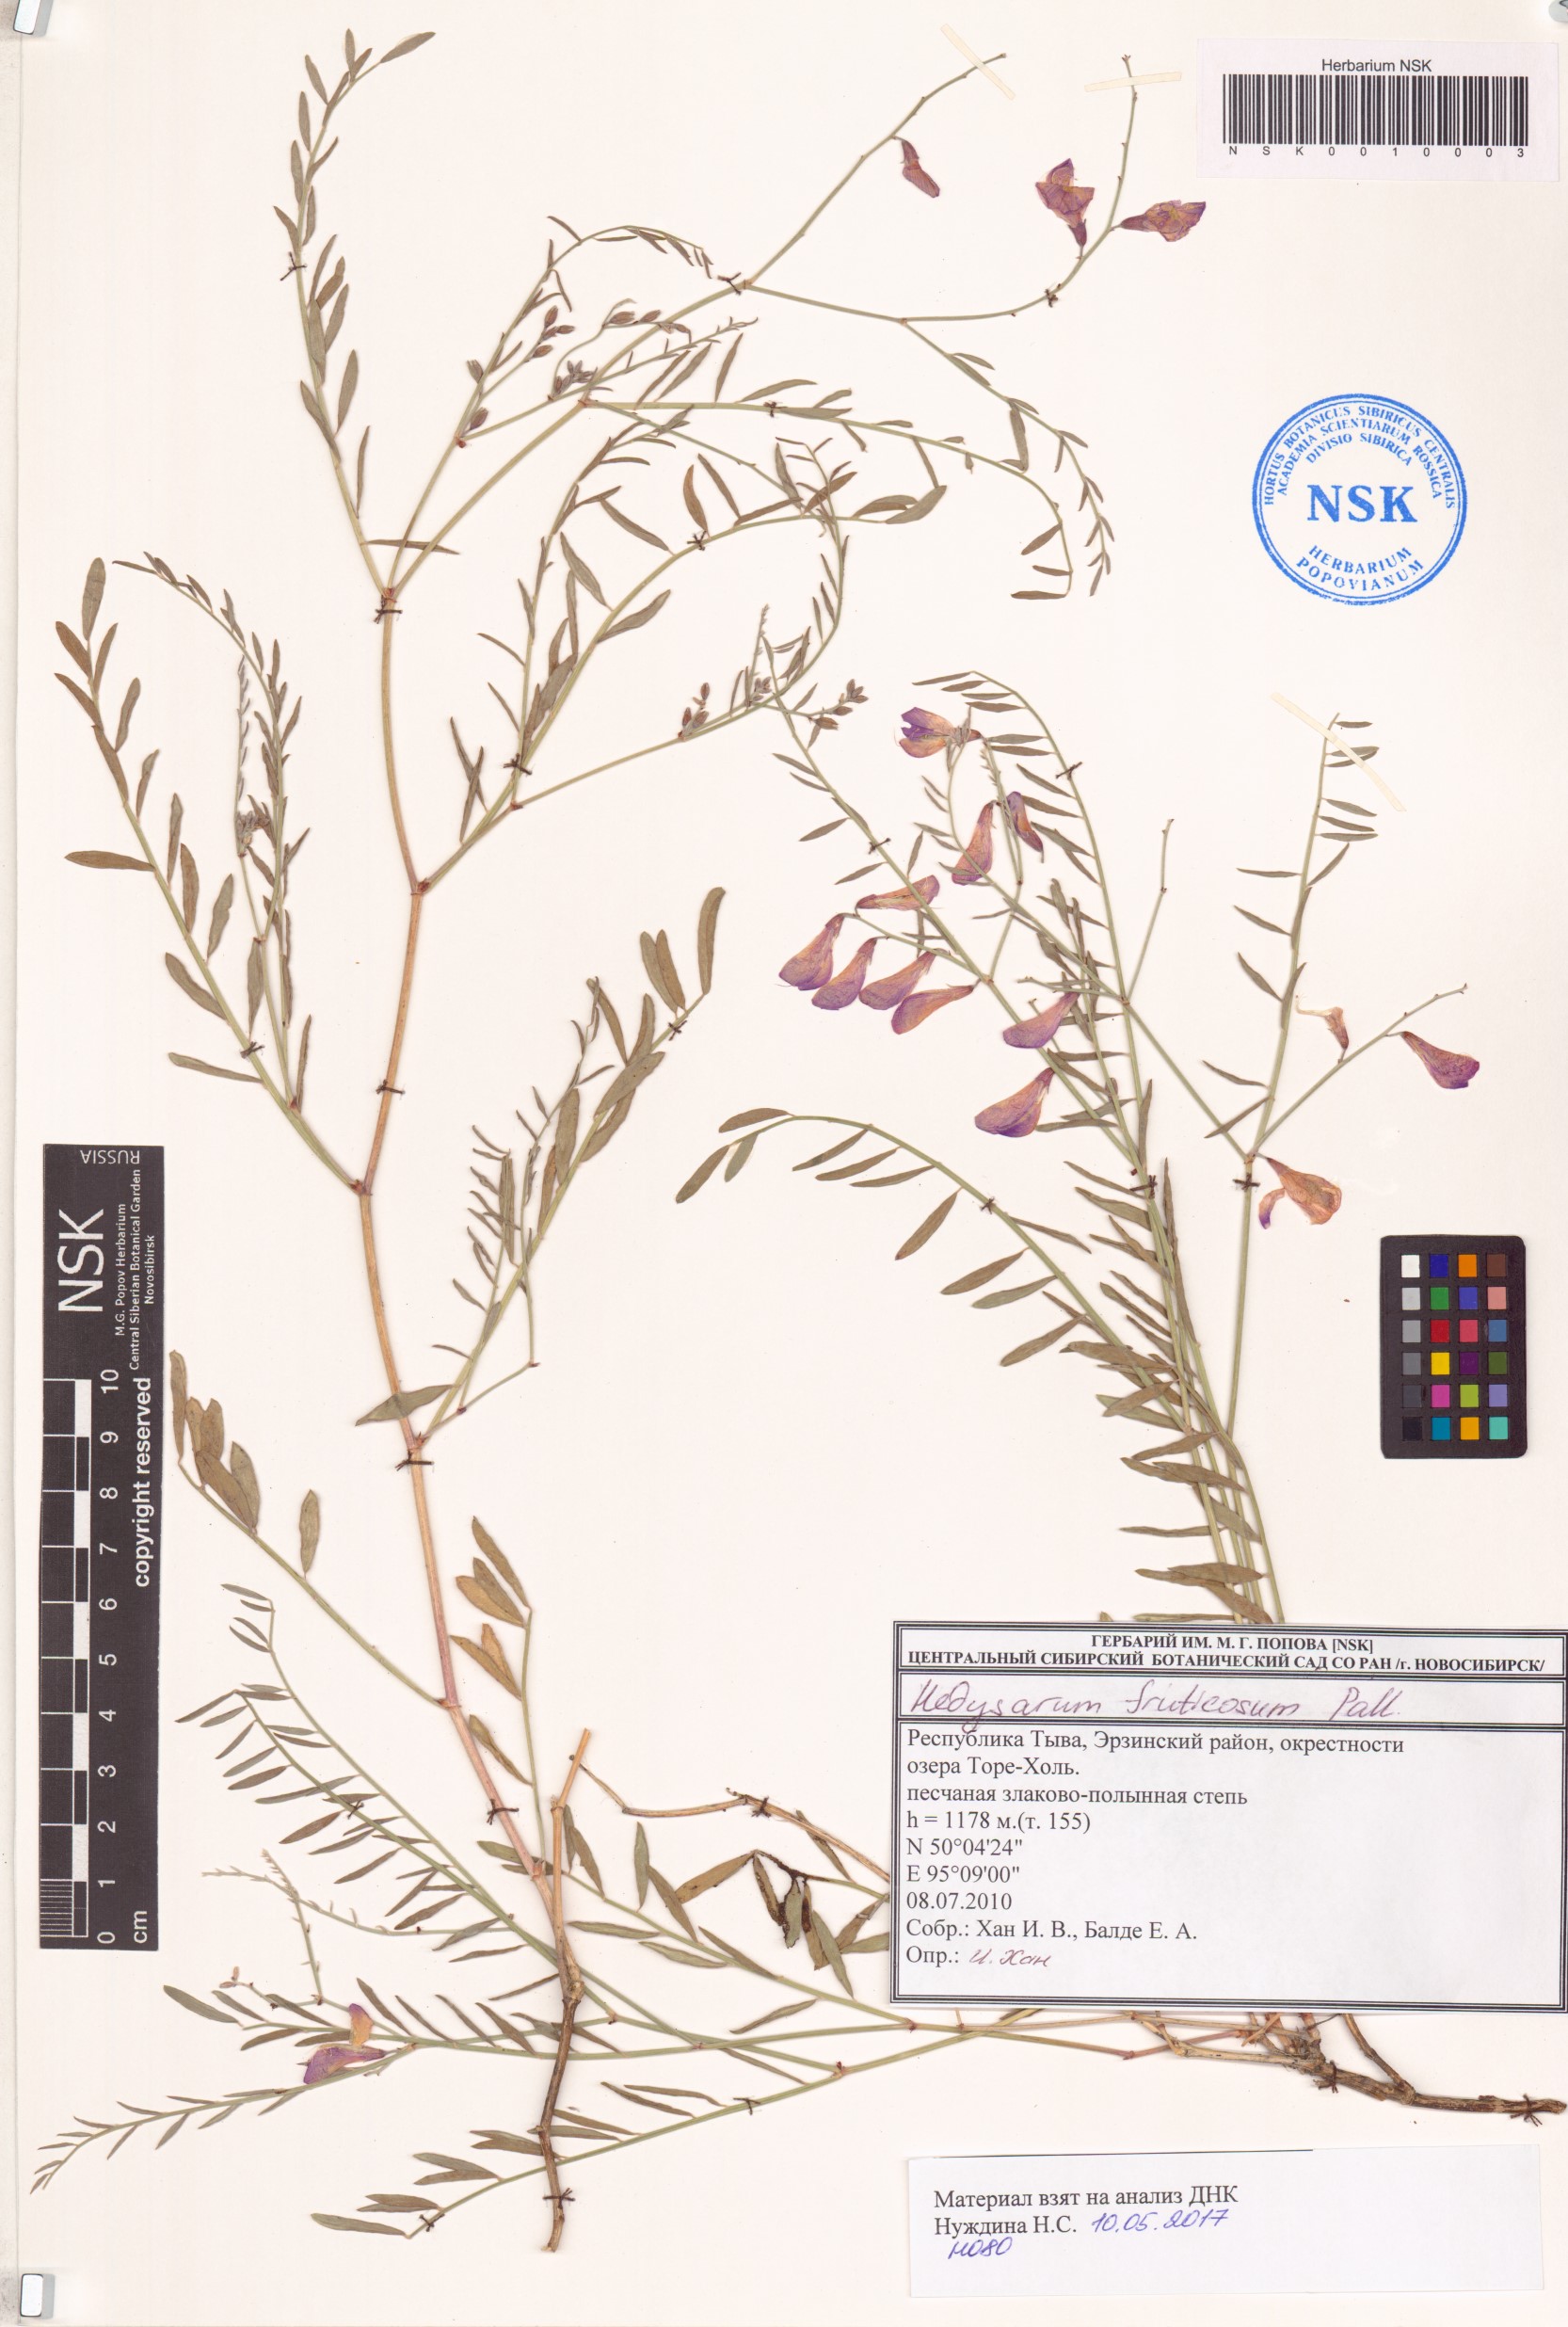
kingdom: Plantae
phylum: Tracheophyta
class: Magnoliopsida
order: Fabales
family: Fabaceae
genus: Corethrodendron
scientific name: Corethrodendron fruticosum
